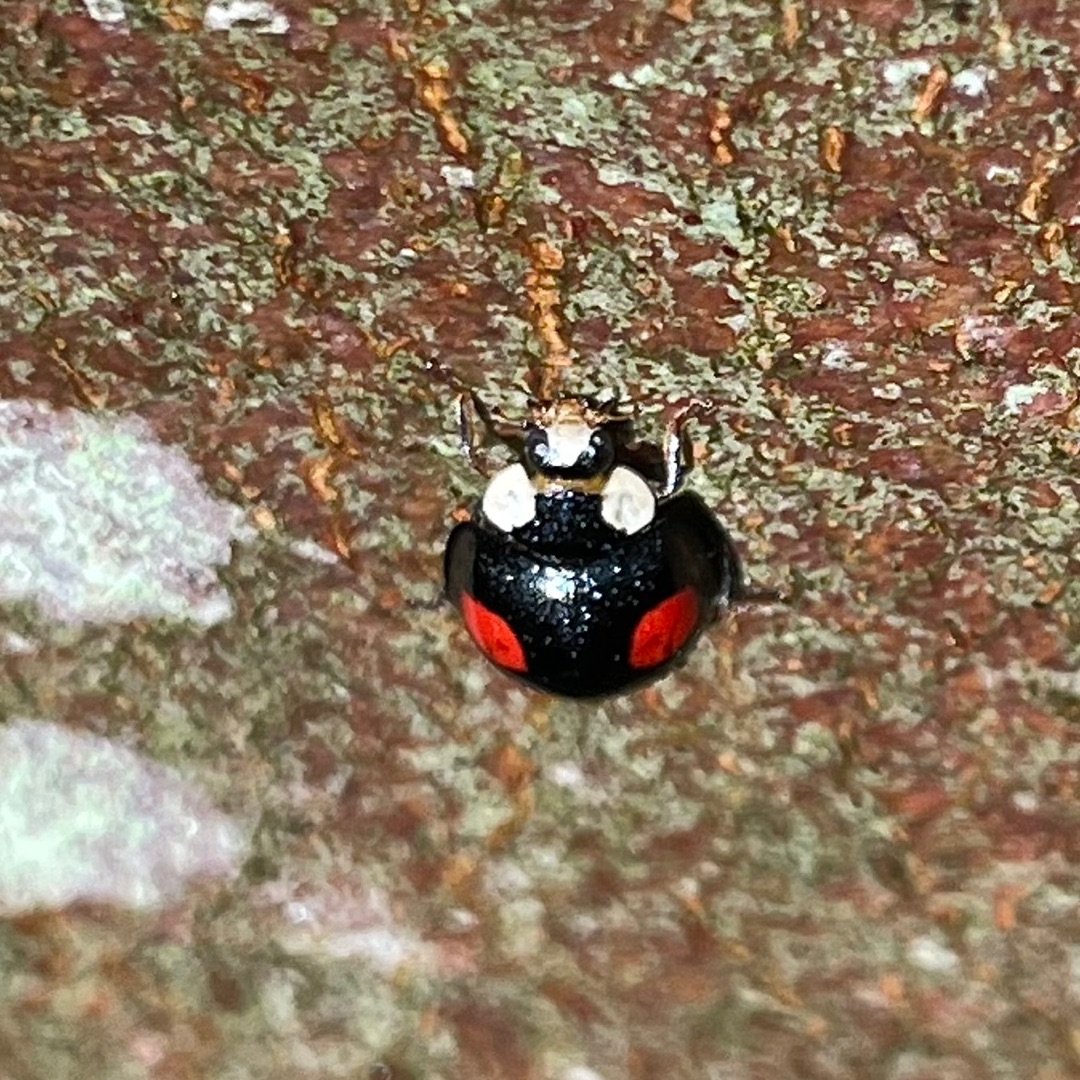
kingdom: Animalia
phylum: Arthropoda
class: Insecta
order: Coleoptera
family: Coccinellidae
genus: Harmonia
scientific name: Harmonia axyridis
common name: Harlekinmariehøne
